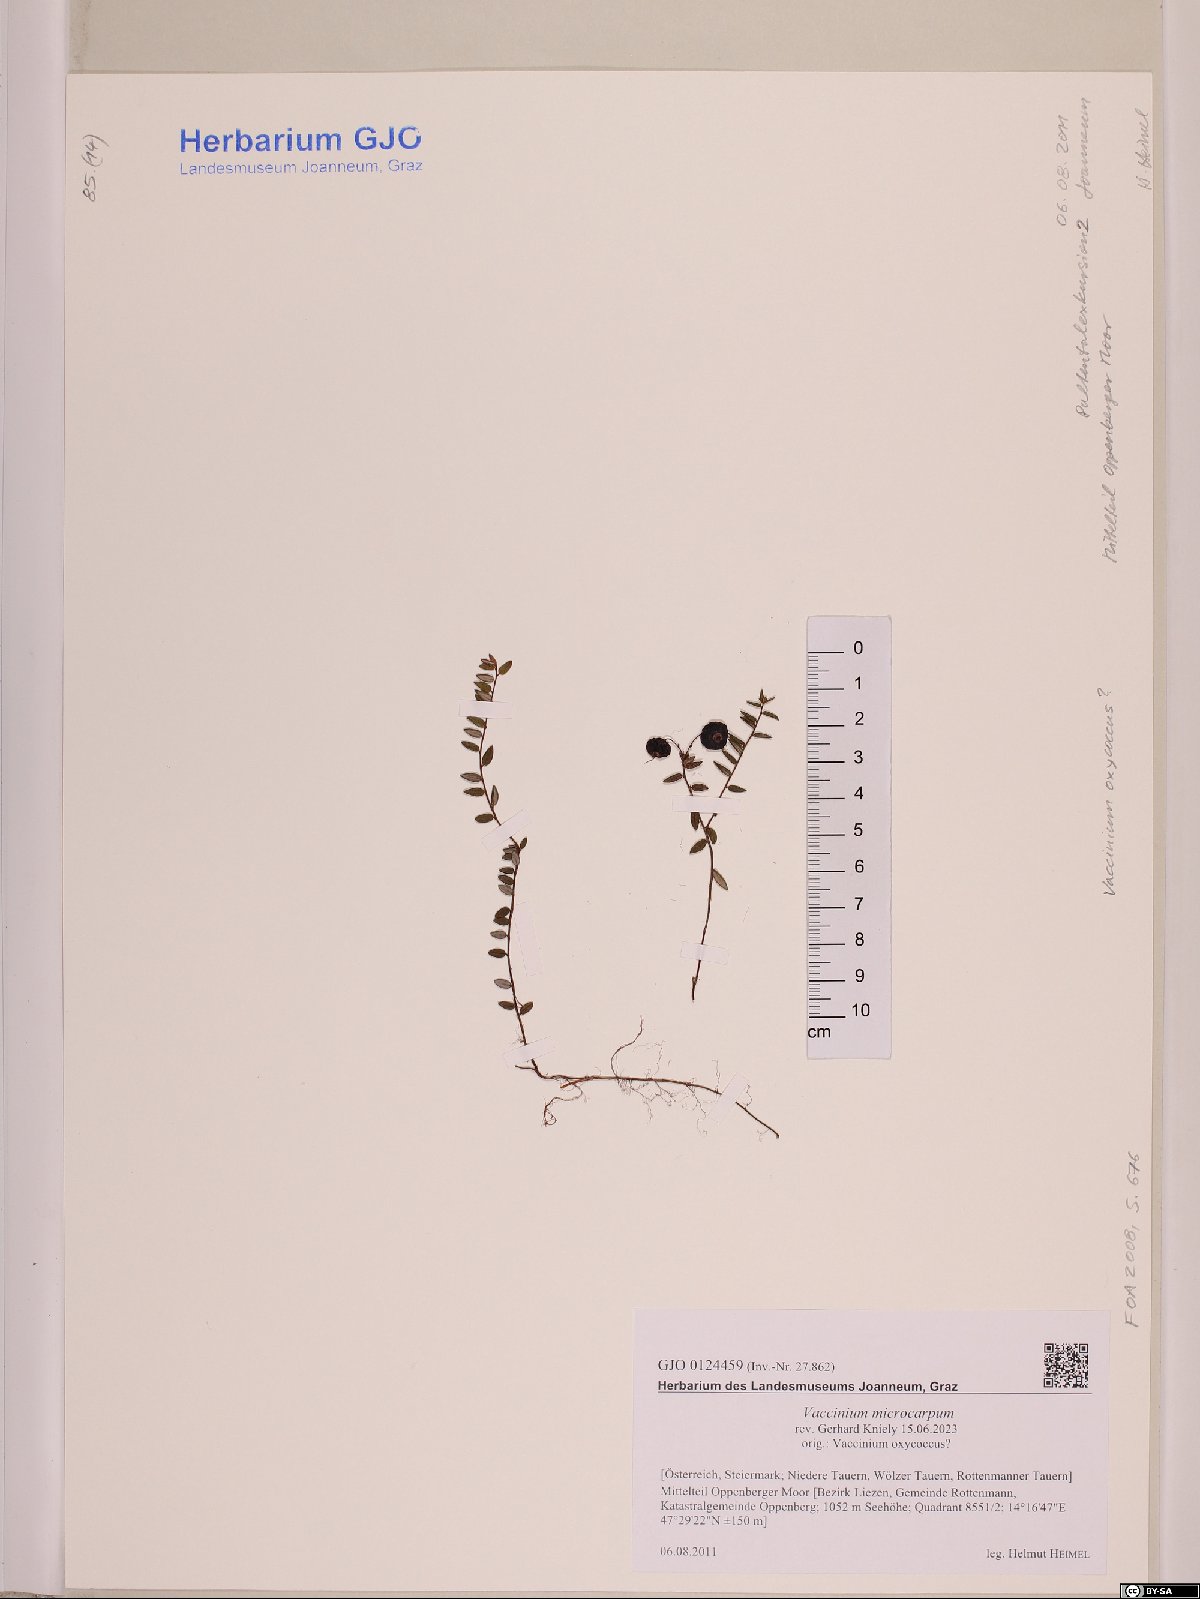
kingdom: Plantae
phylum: Tracheophyta
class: Magnoliopsida
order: Ericales
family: Ericaceae
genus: Vaccinium
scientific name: Vaccinium microcarpum
